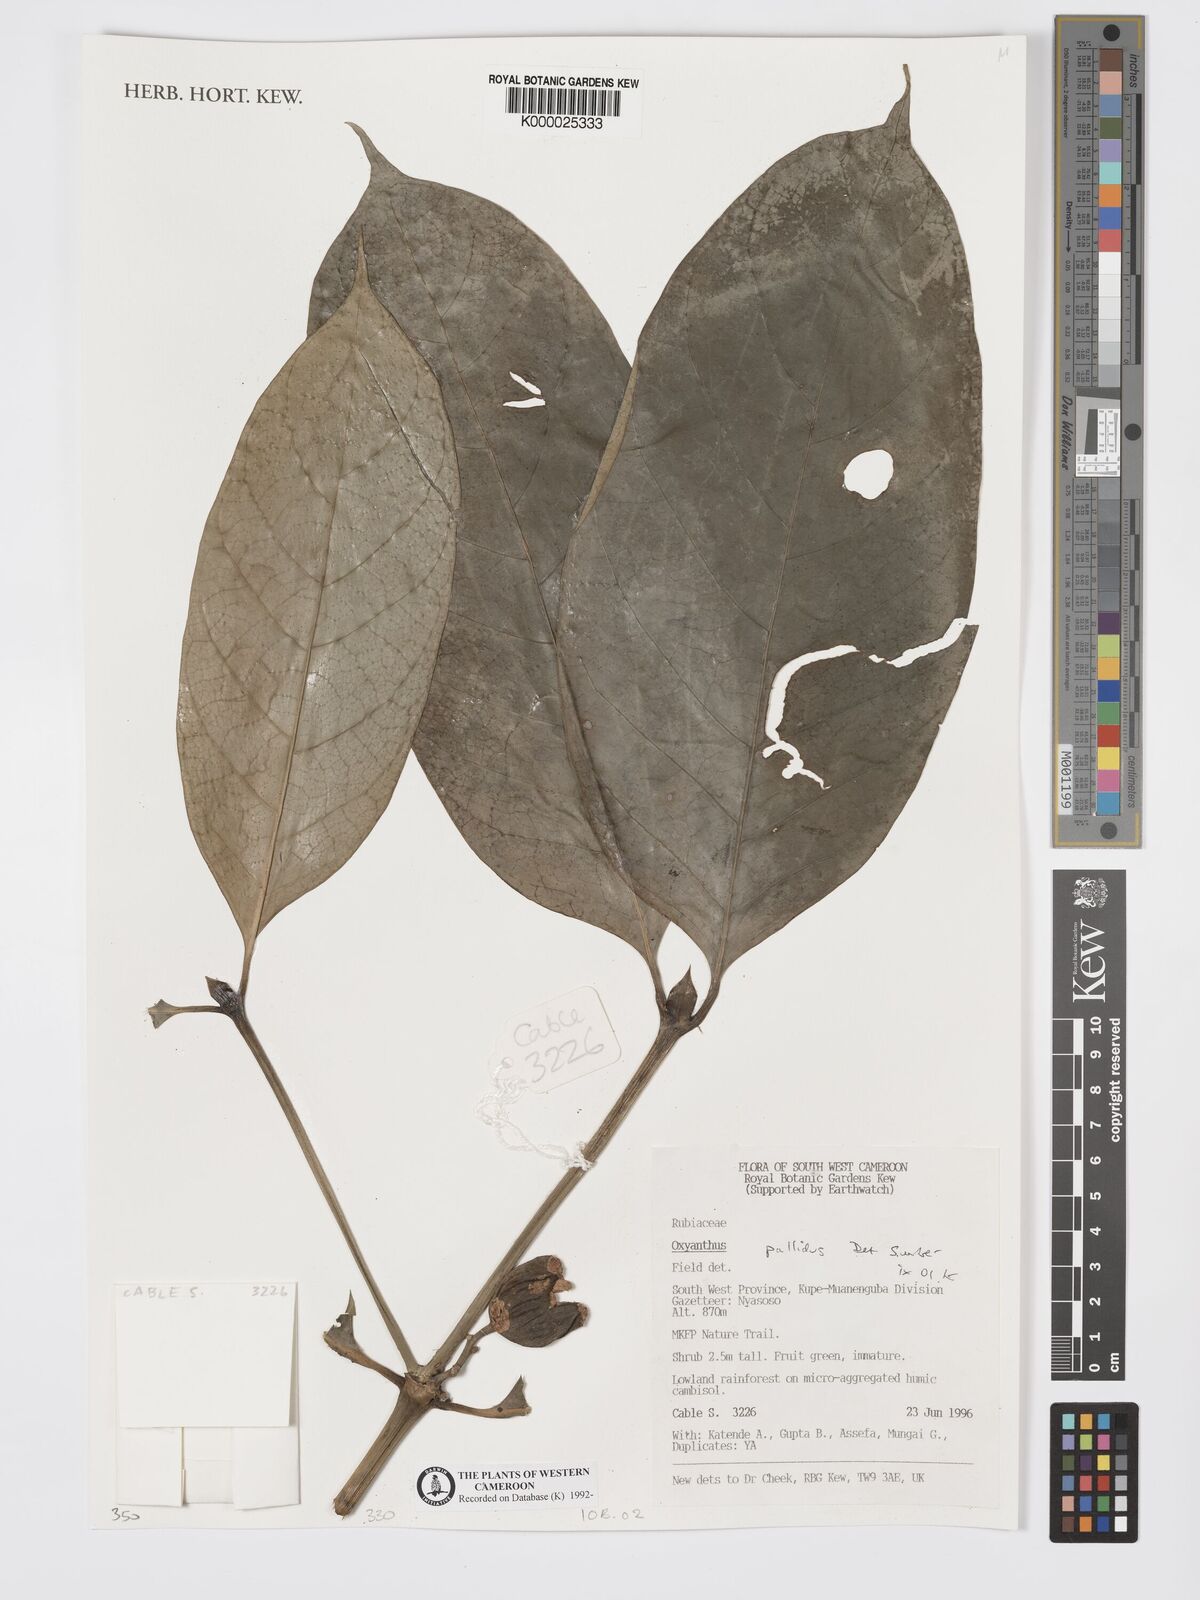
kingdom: Plantae
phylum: Tracheophyta
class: Magnoliopsida
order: Gentianales
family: Rubiaceae
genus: Oxyanthus
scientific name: Oxyanthus pallidus
